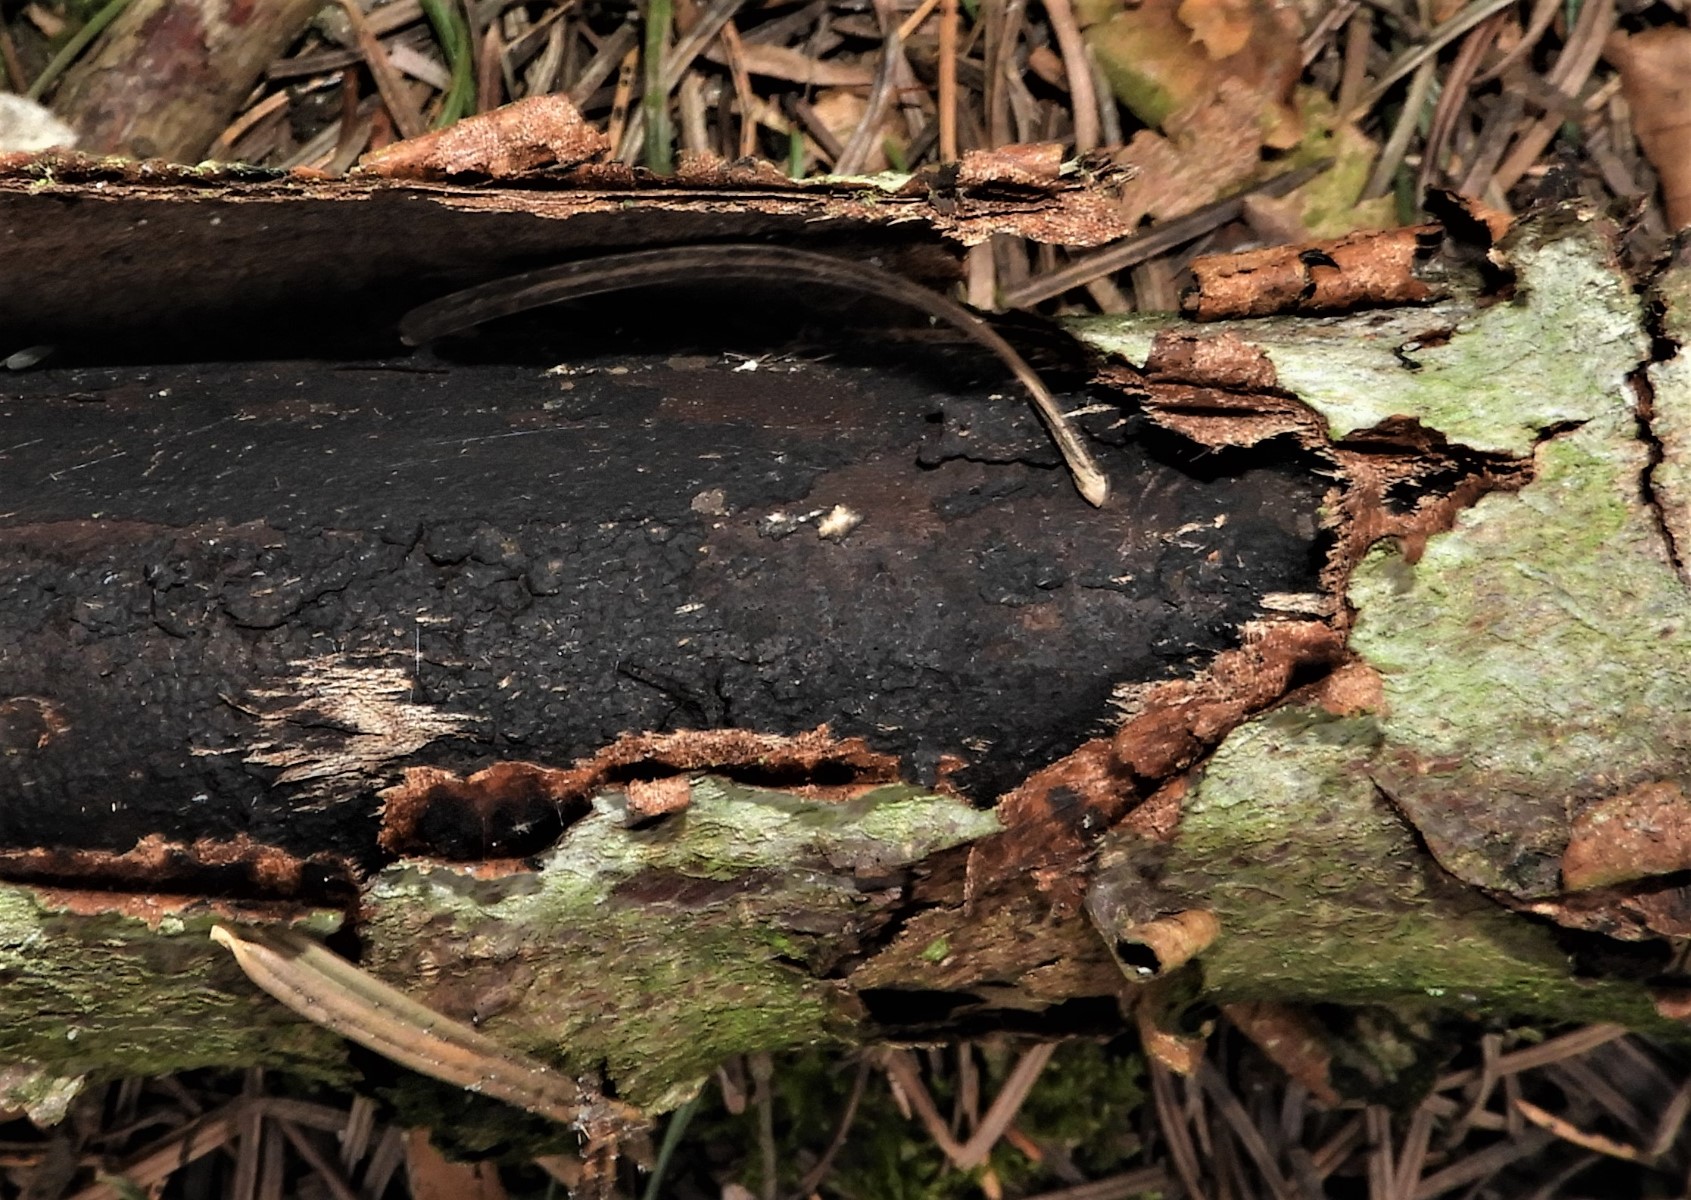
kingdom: Fungi
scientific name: Fungi
